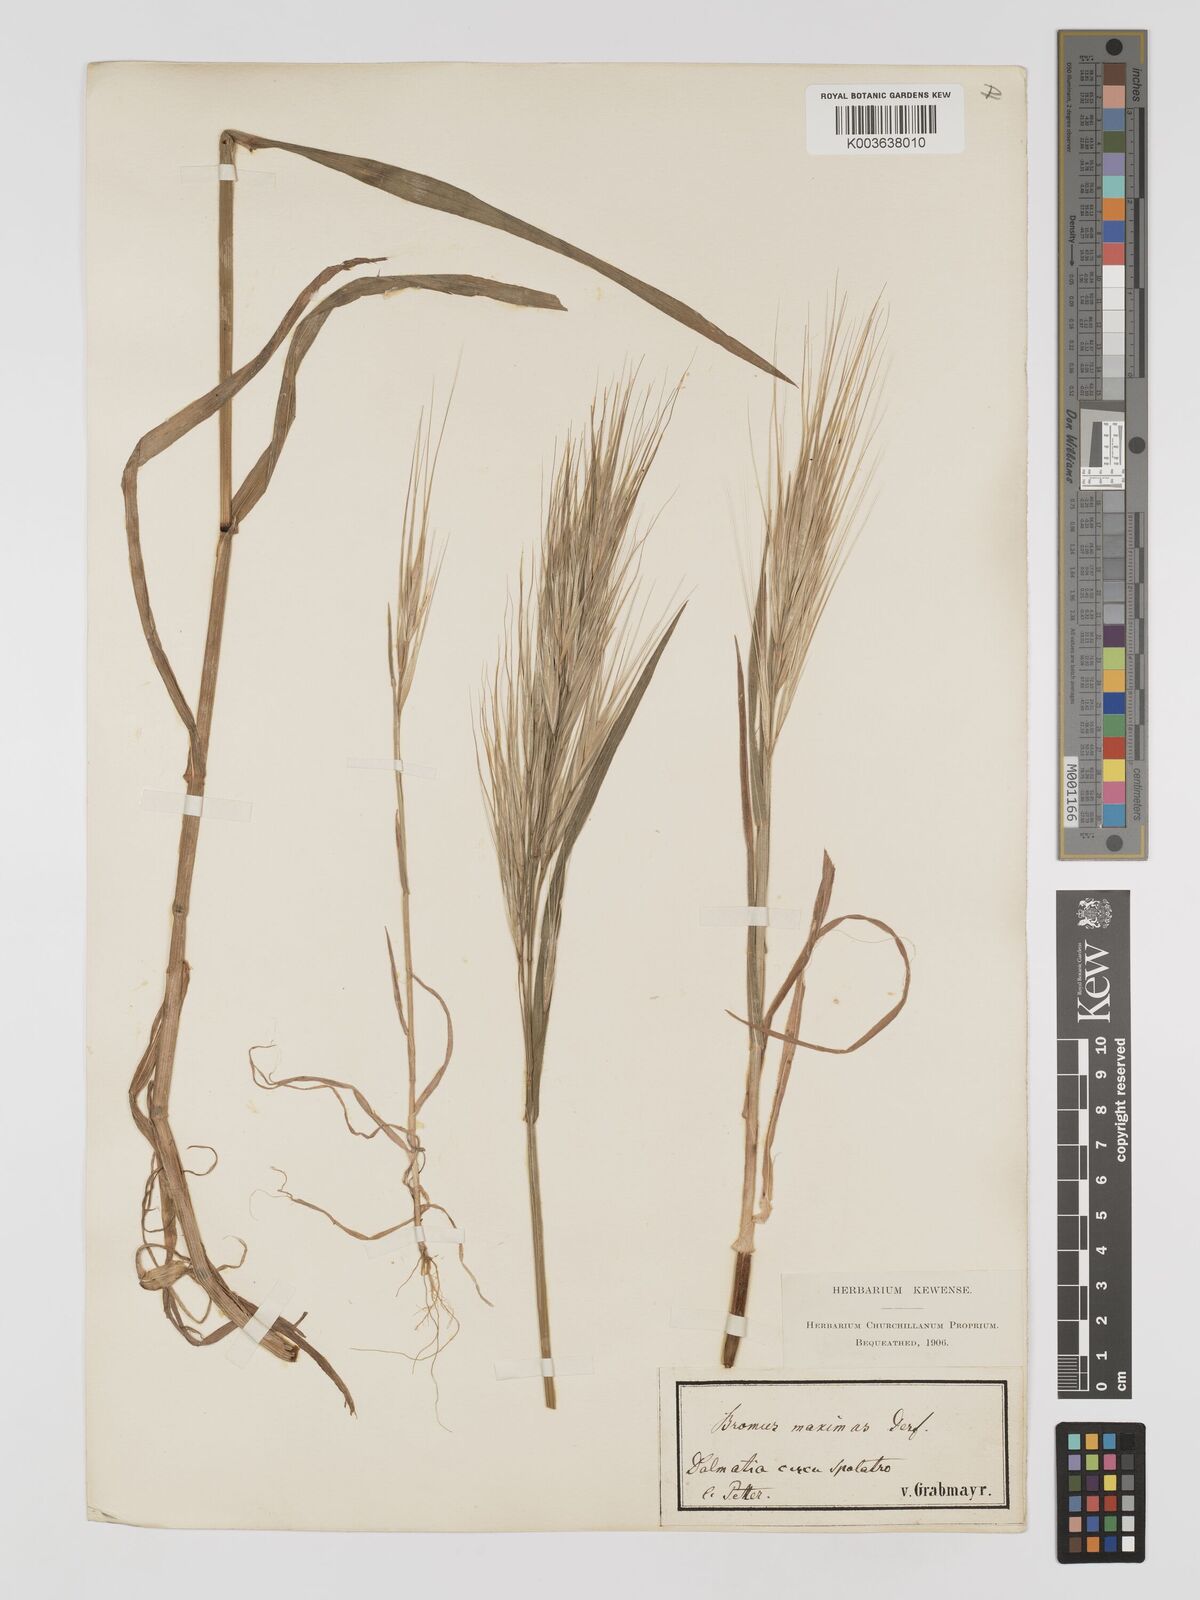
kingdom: Plantae
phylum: Tracheophyta
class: Liliopsida
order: Poales
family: Poaceae
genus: Bromus
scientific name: Bromus
